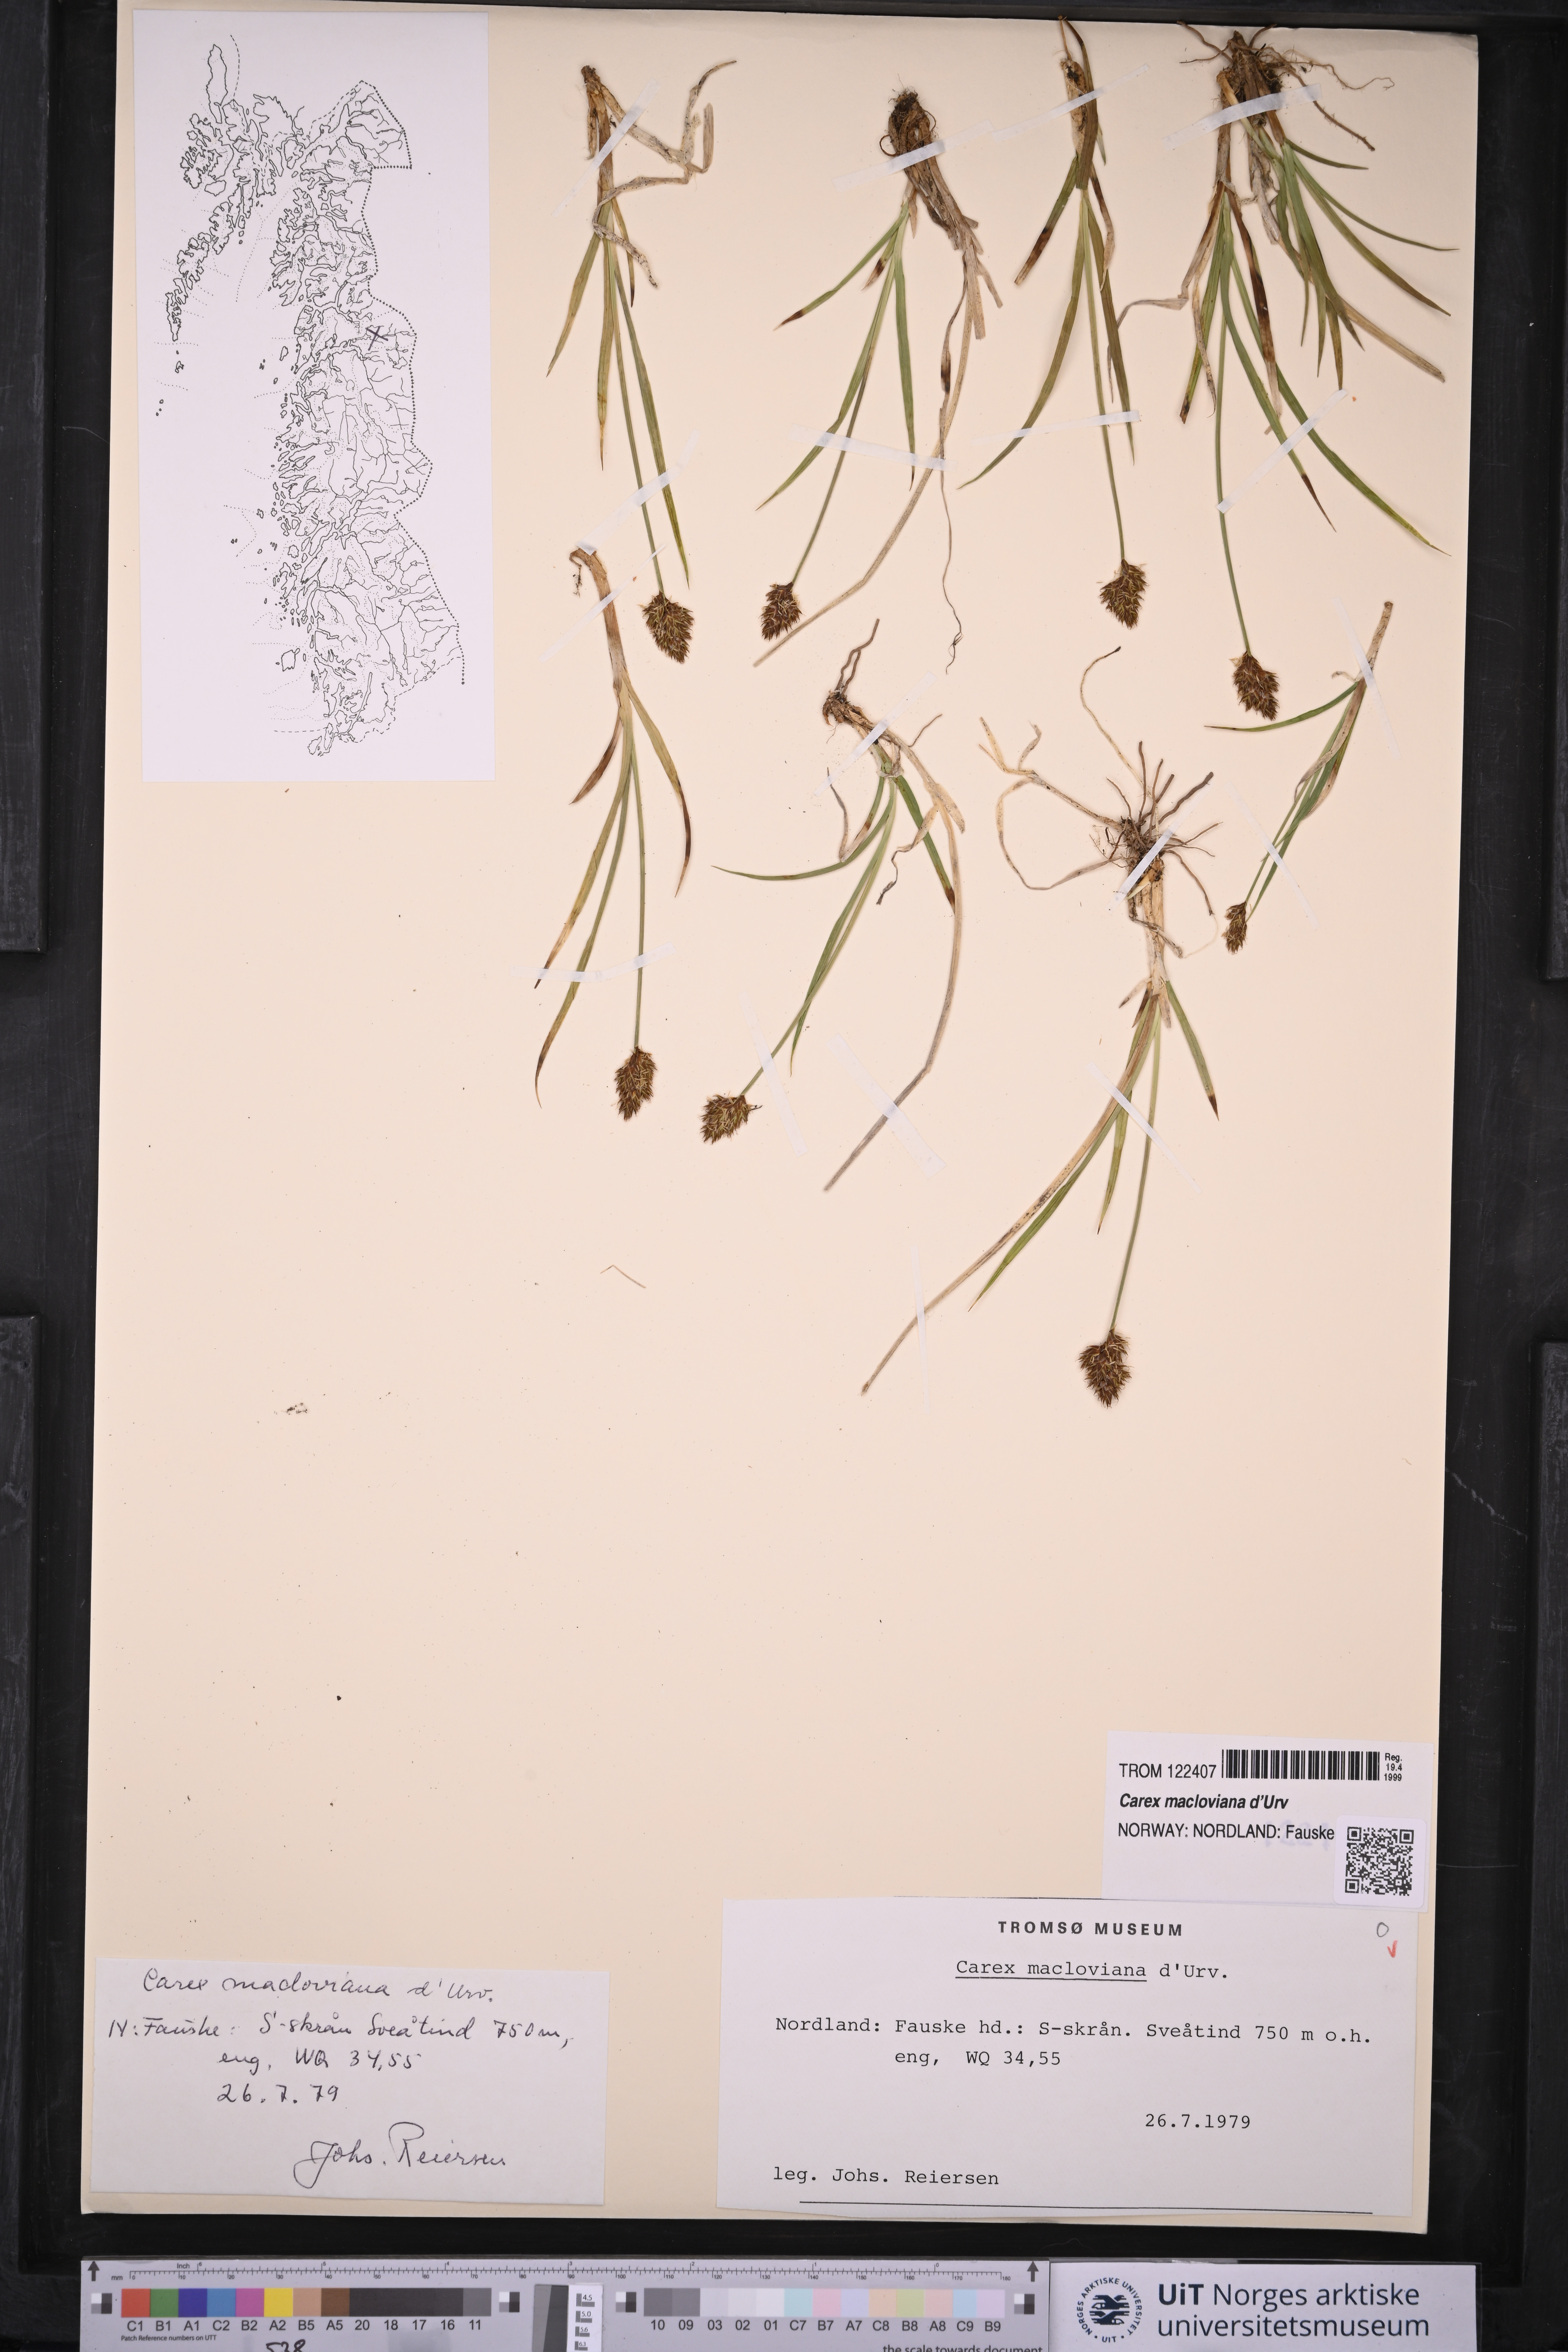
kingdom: Plantae
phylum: Tracheophyta
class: Liliopsida
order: Poales
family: Cyperaceae
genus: Carex
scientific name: Carex macloviana
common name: Falkland island sedge
